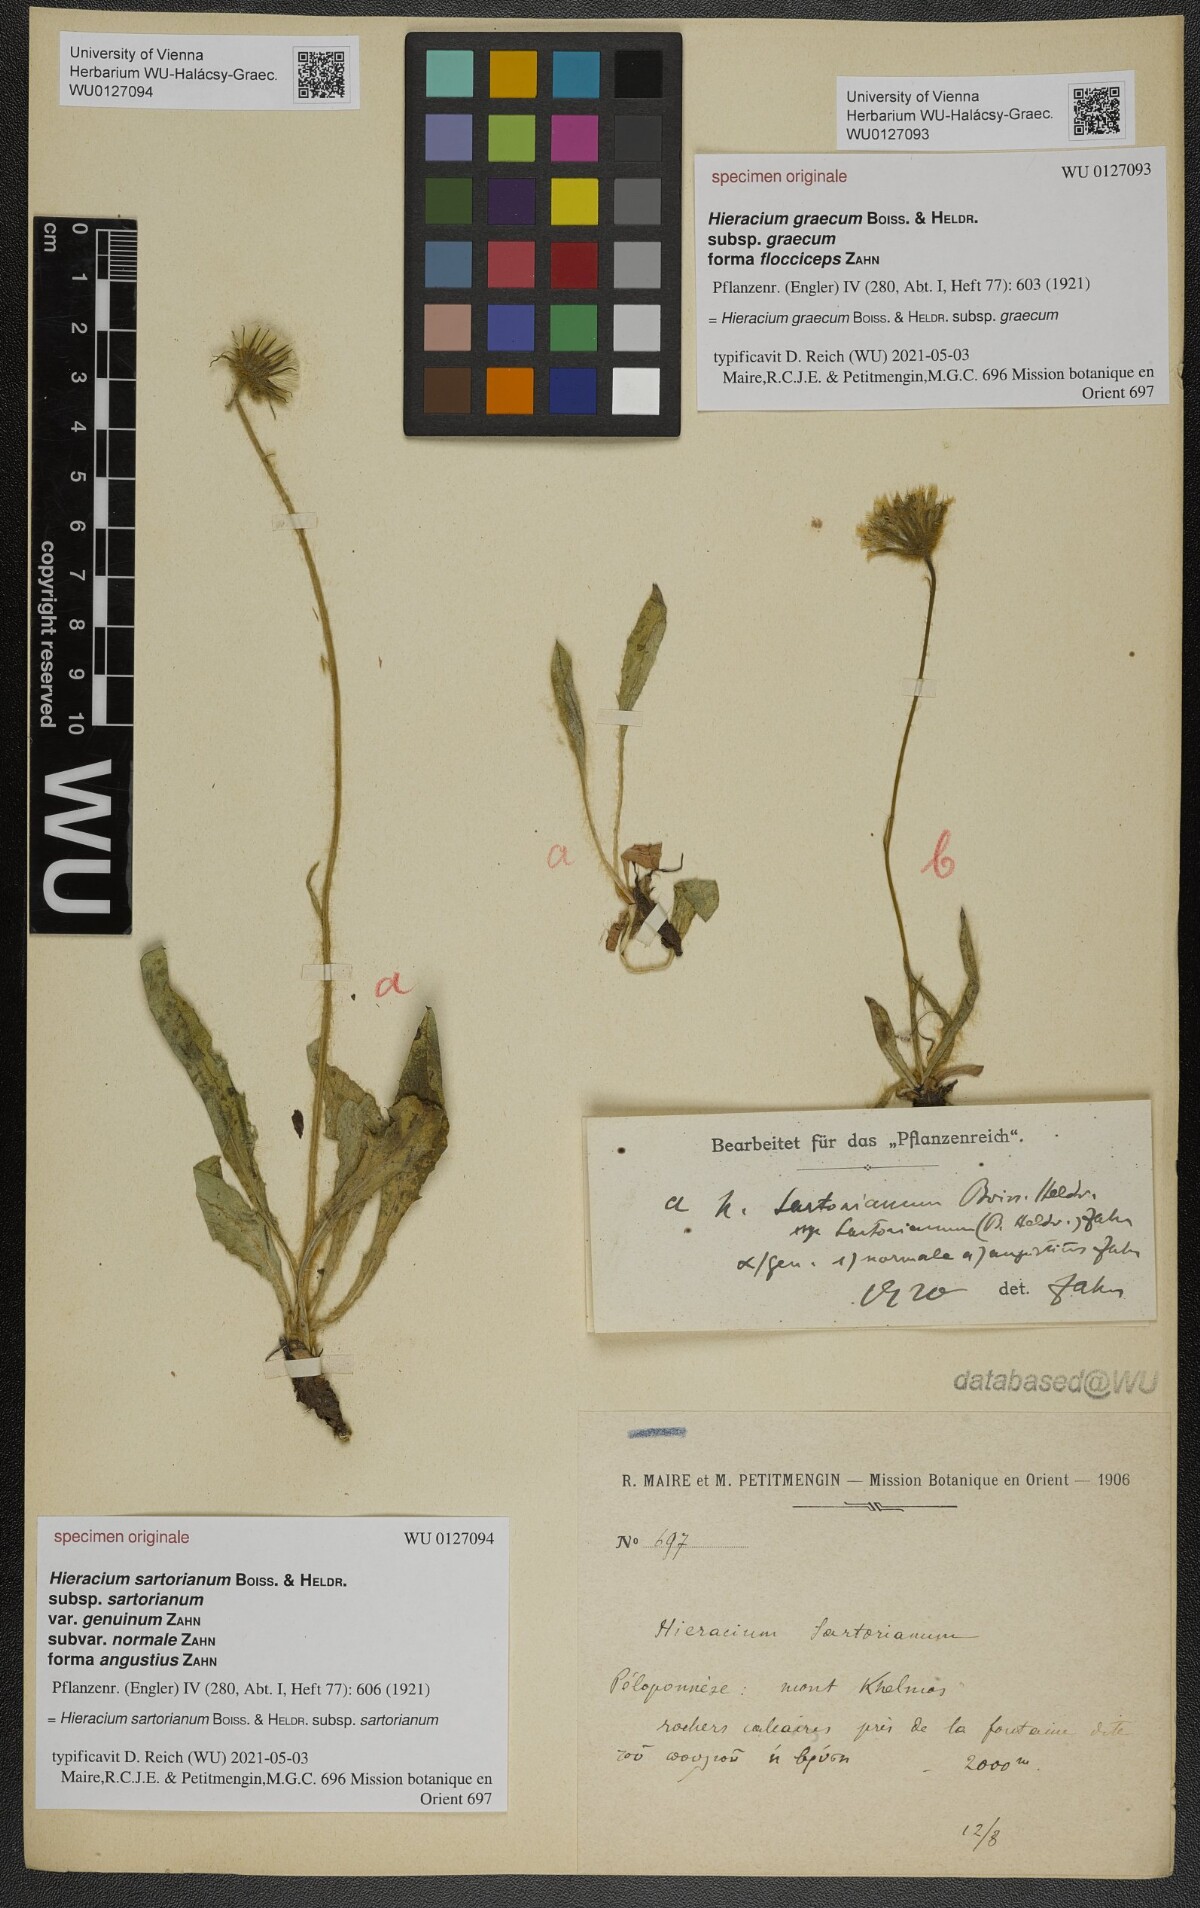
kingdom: Plantae
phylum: Tracheophyta
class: Magnoliopsida
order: Asterales
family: Asteraceae
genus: Hieracium
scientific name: Hieracium sartorianum
